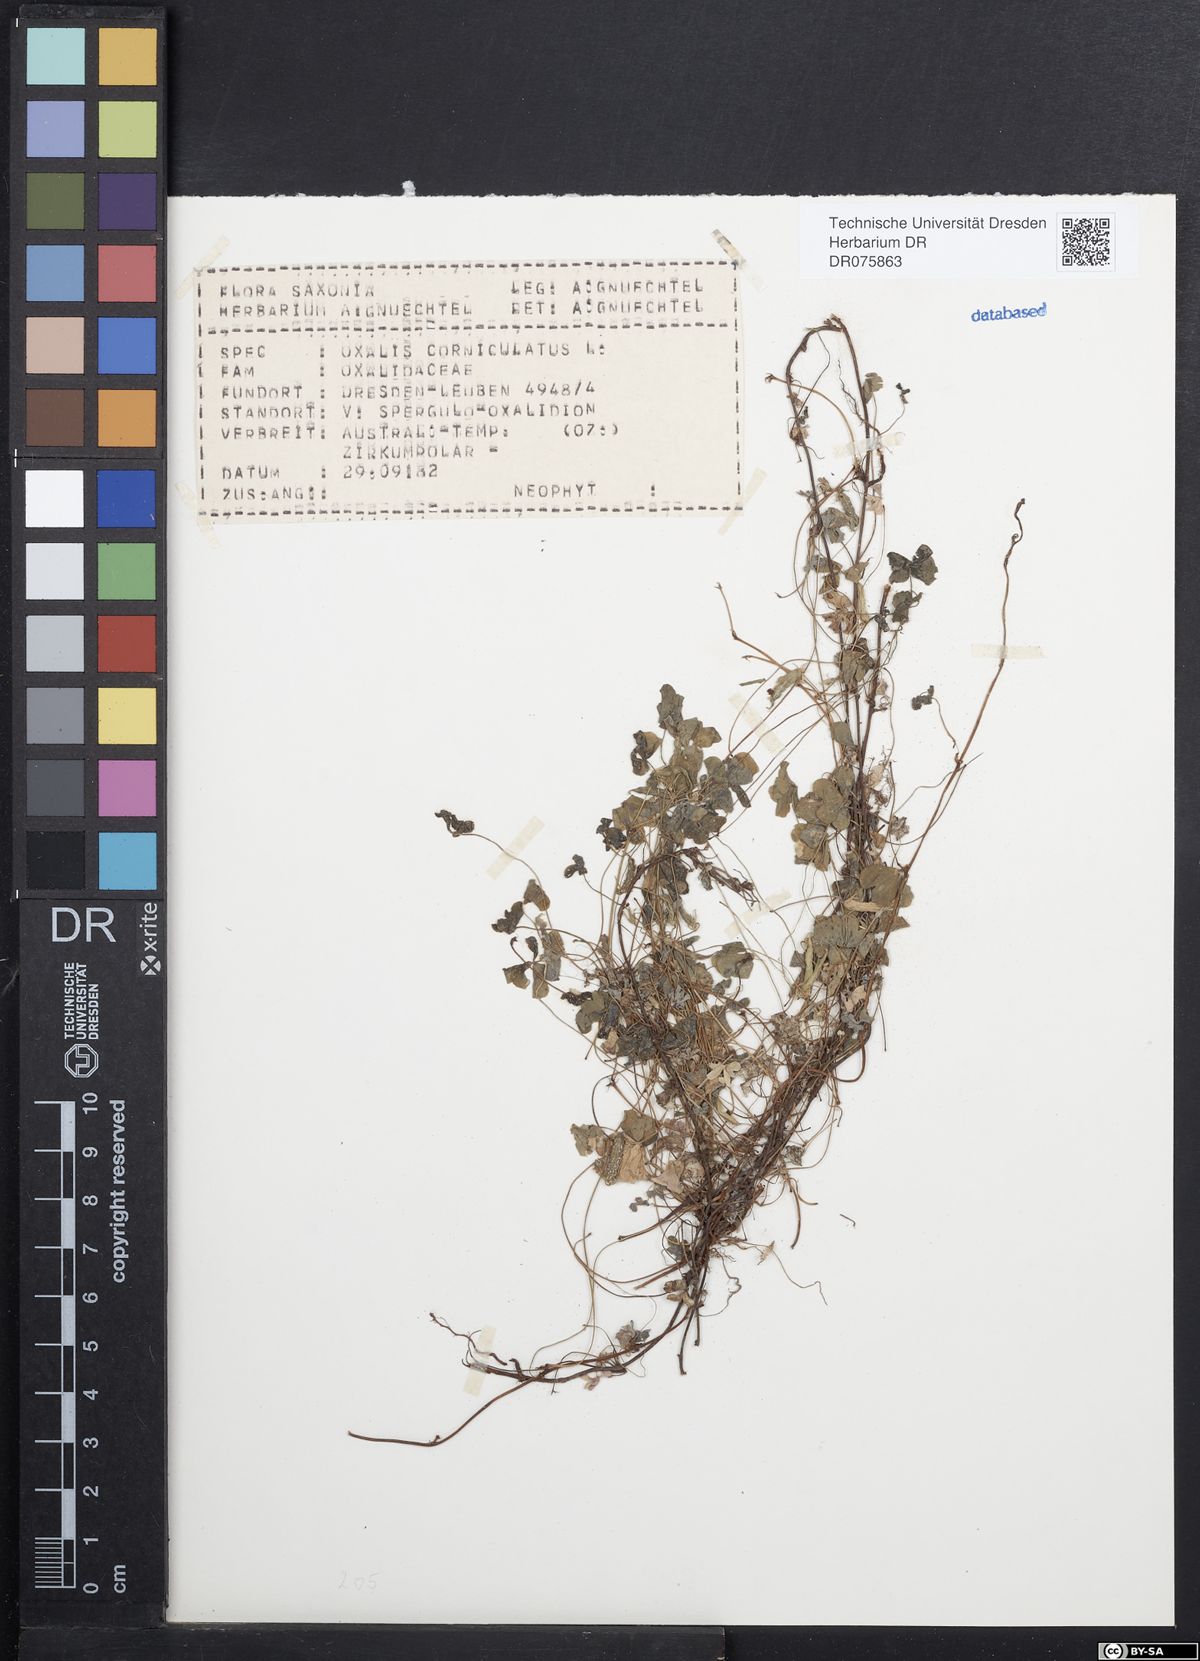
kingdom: Plantae
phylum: Tracheophyta
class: Magnoliopsida
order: Oxalidales
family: Oxalidaceae
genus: Oxalis
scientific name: Oxalis corniculata
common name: Procumbent yellow-sorrel
